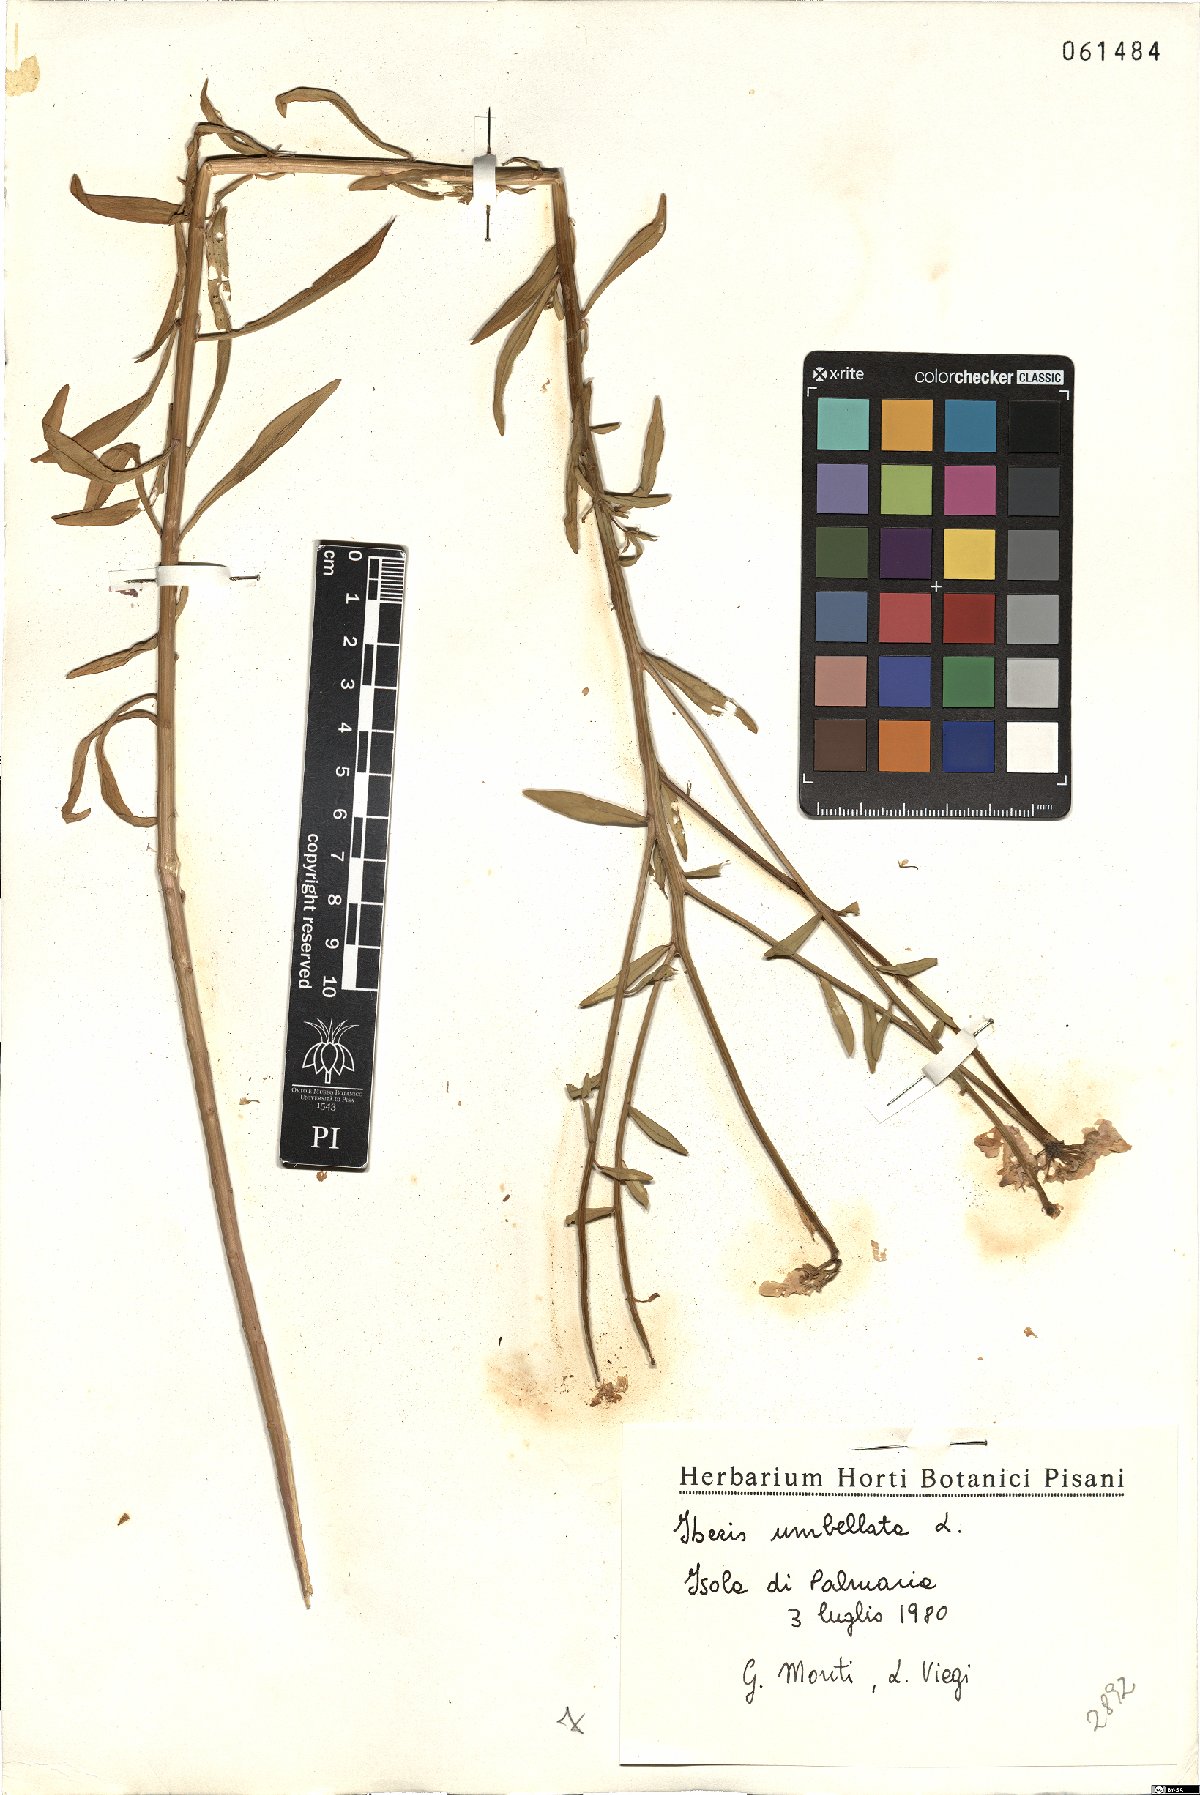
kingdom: Plantae
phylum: Tracheophyta
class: Magnoliopsida
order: Brassicales
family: Brassicaceae
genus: Iberis
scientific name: Iberis umbellata
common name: Globe candytuft
